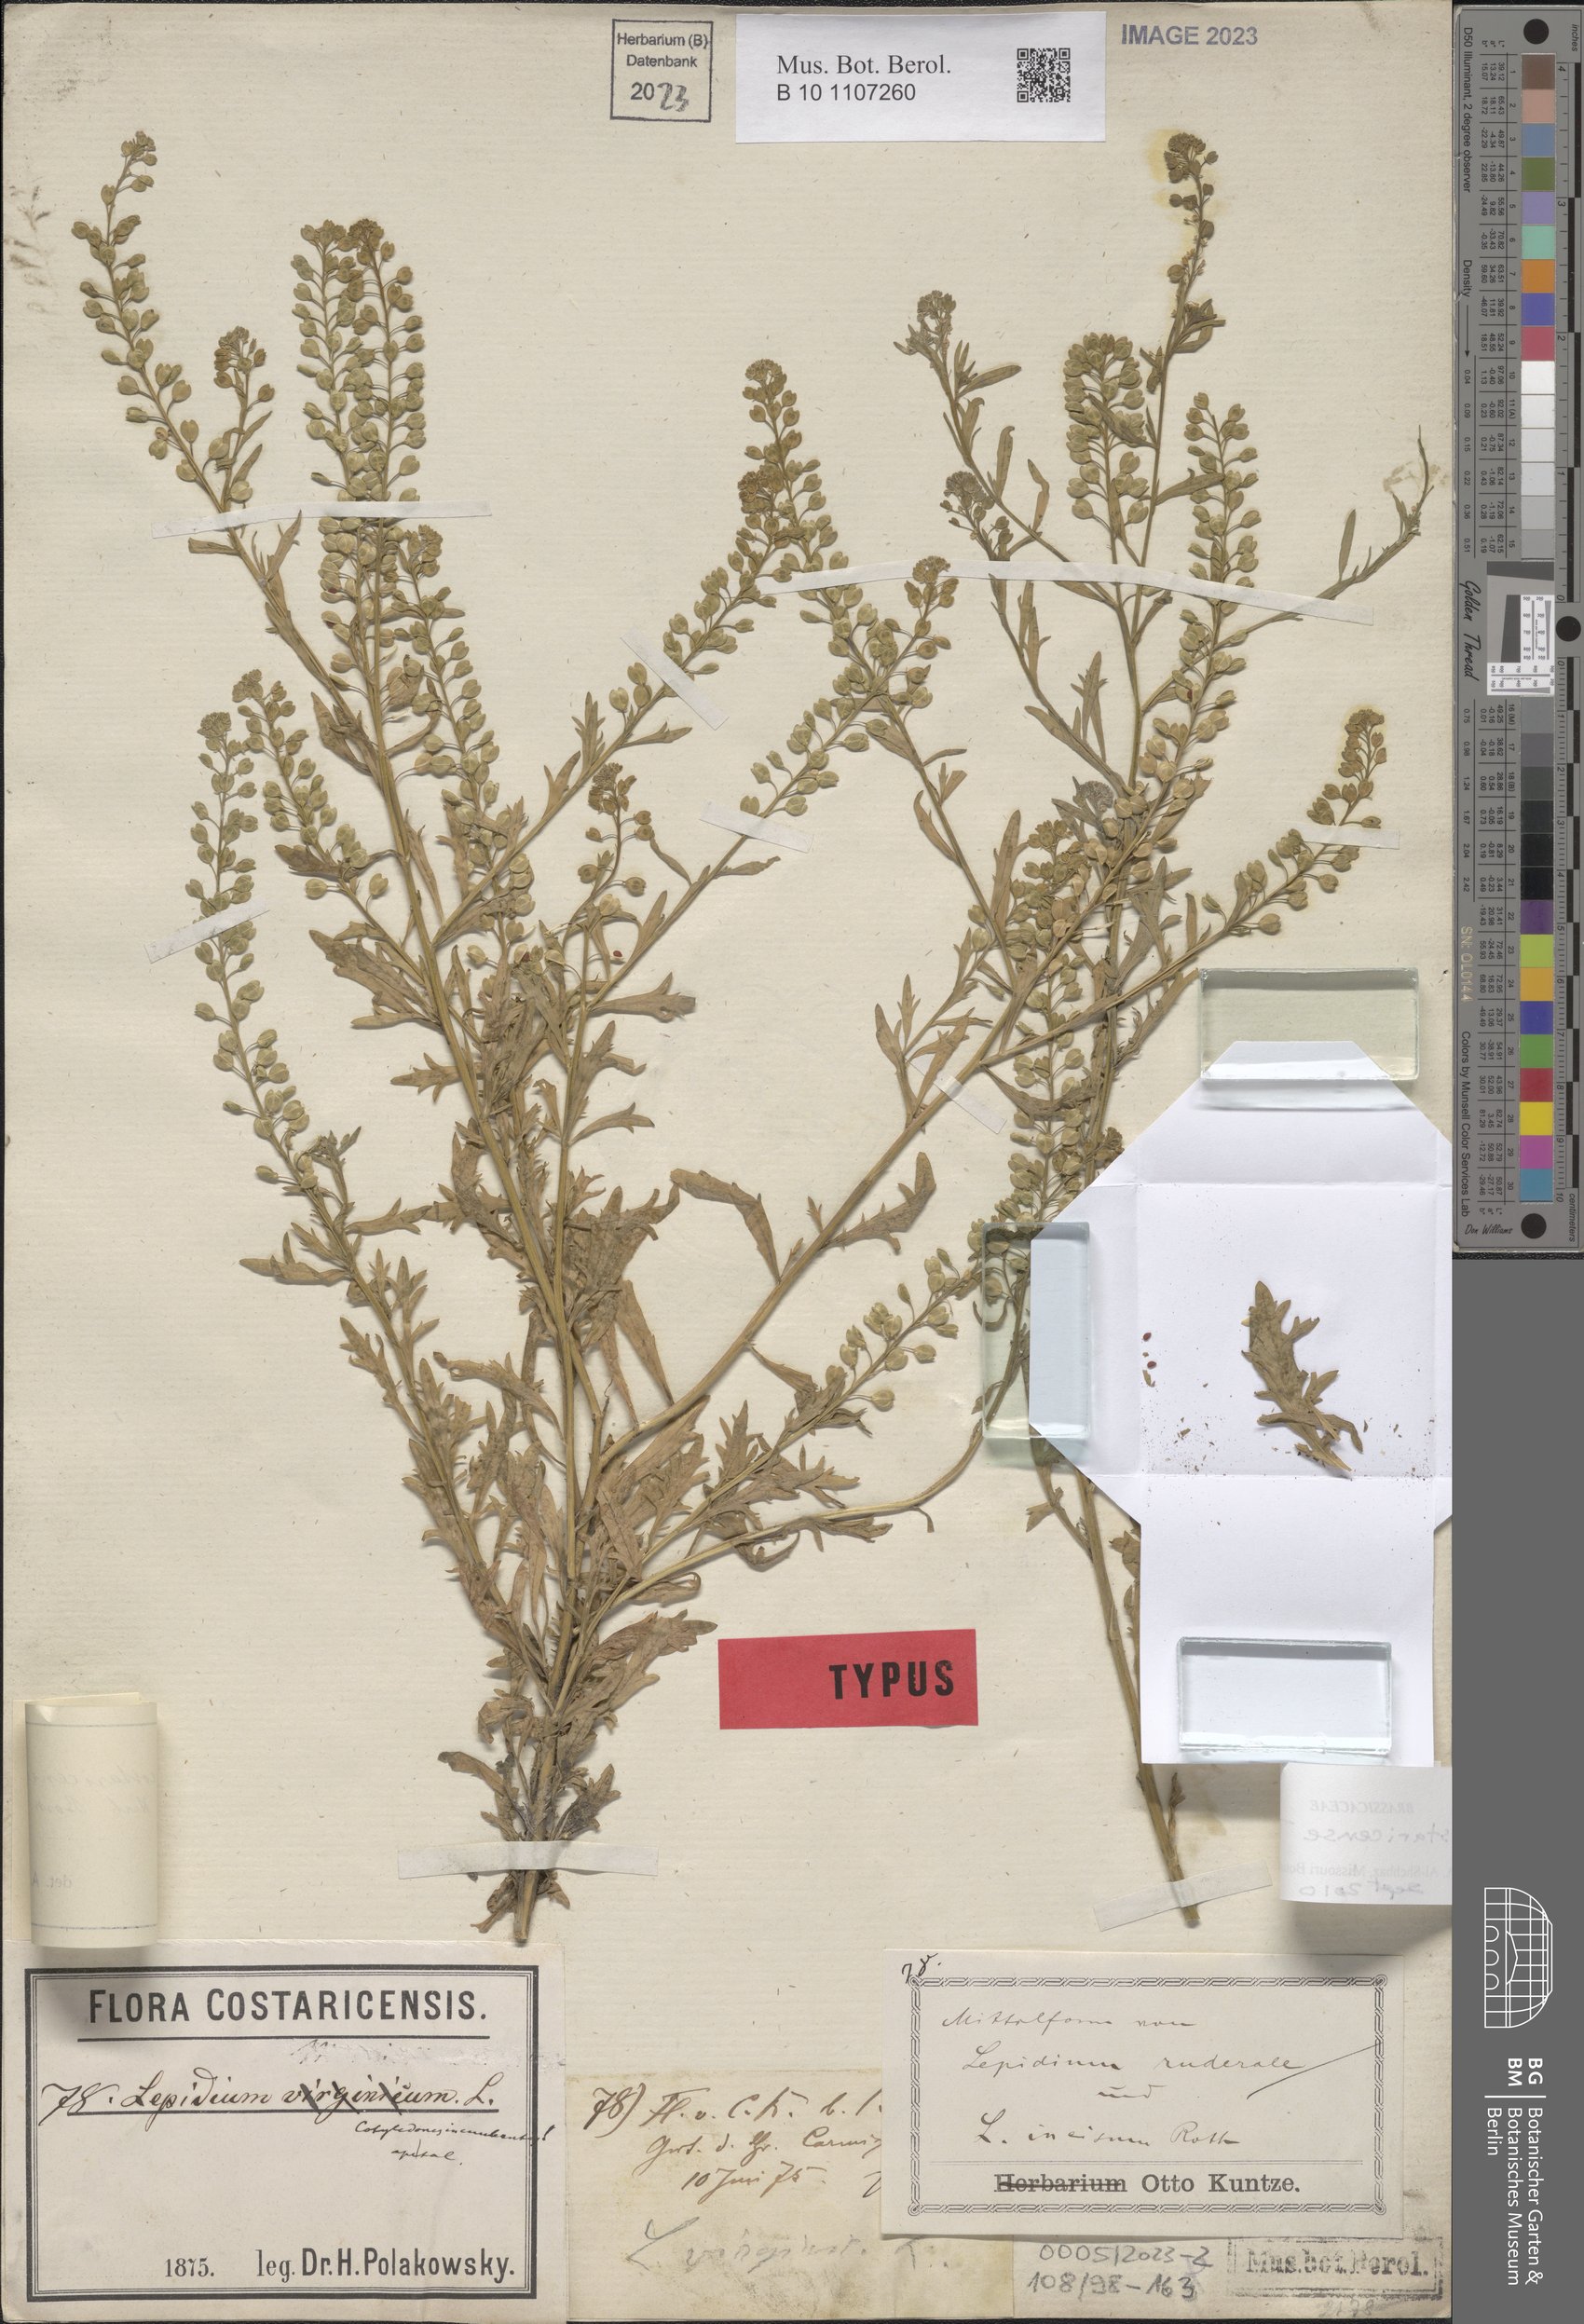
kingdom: Plantae
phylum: Tracheophyta
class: Magnoliopsida
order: Brassicales
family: Brassicaceae
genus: Lepidium
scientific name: Lepidium costaricense
